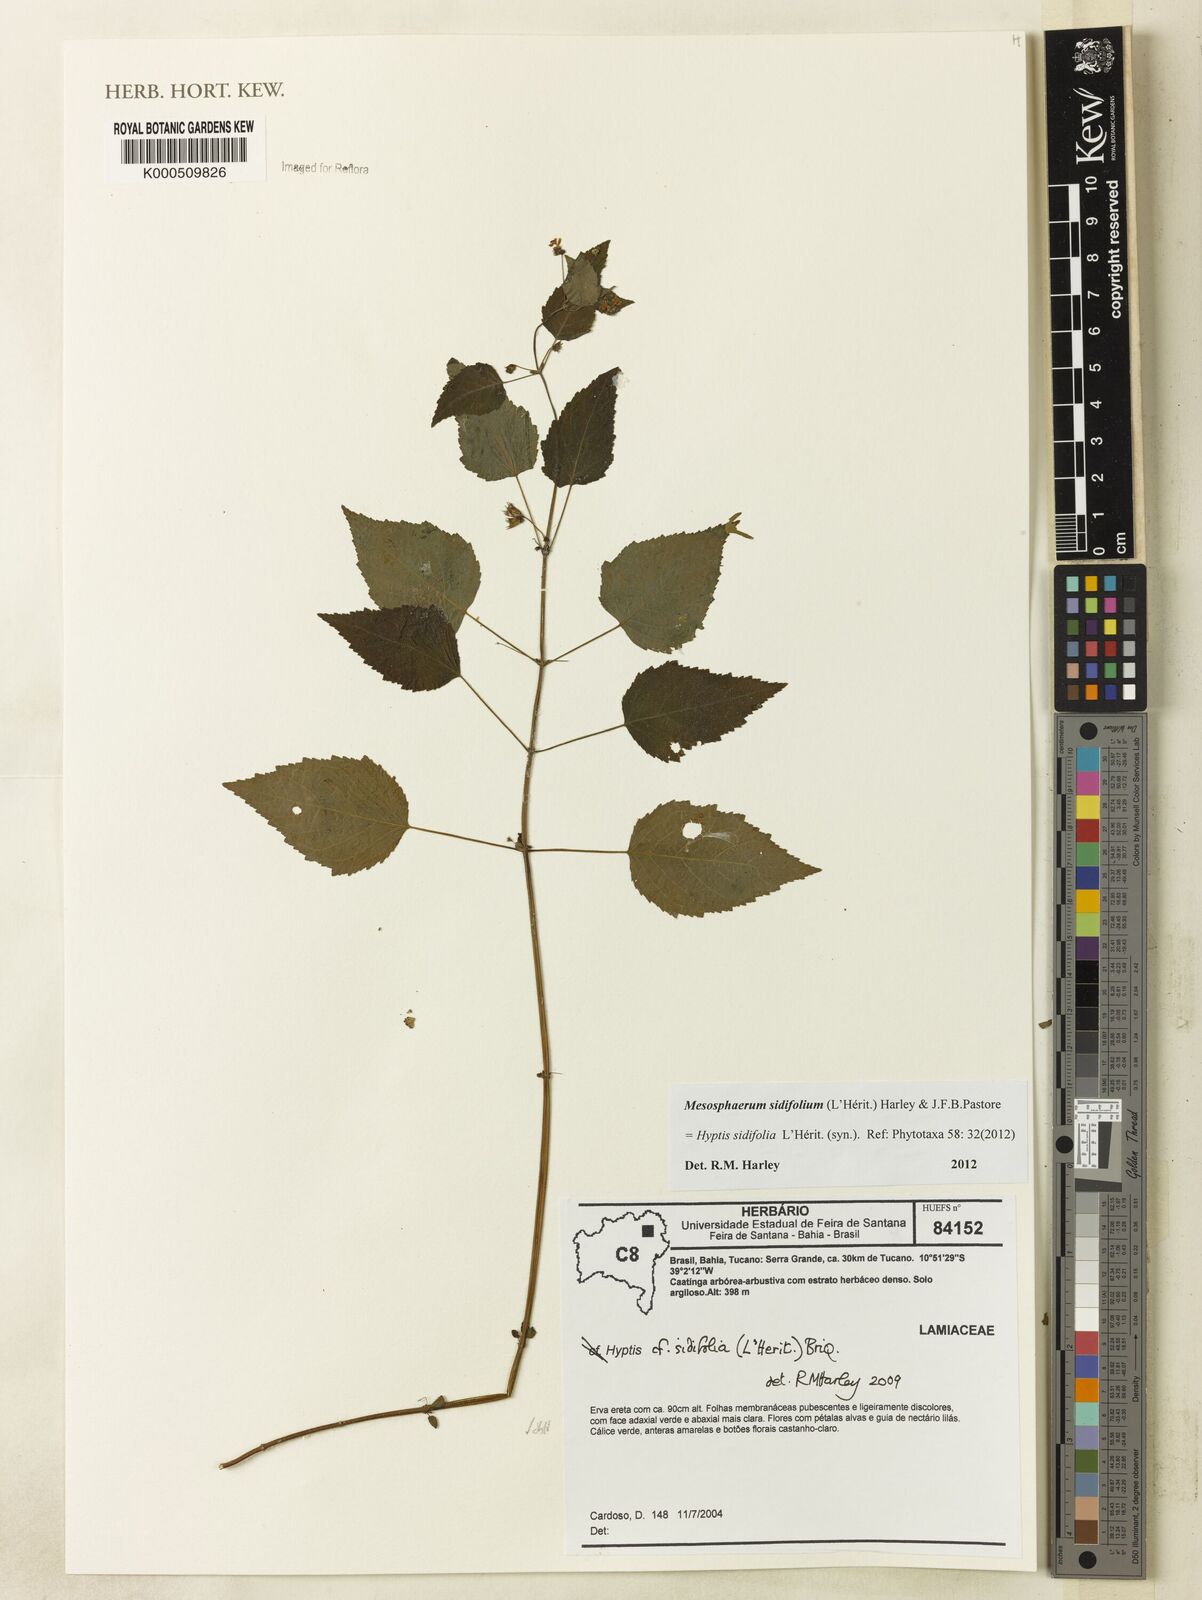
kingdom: Plantae
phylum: Tracheophyta
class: Magnoliopsida
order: Lamiales
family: Lamiaceae
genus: Mesosphaerum
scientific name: Mesosphaerum sidifolium
